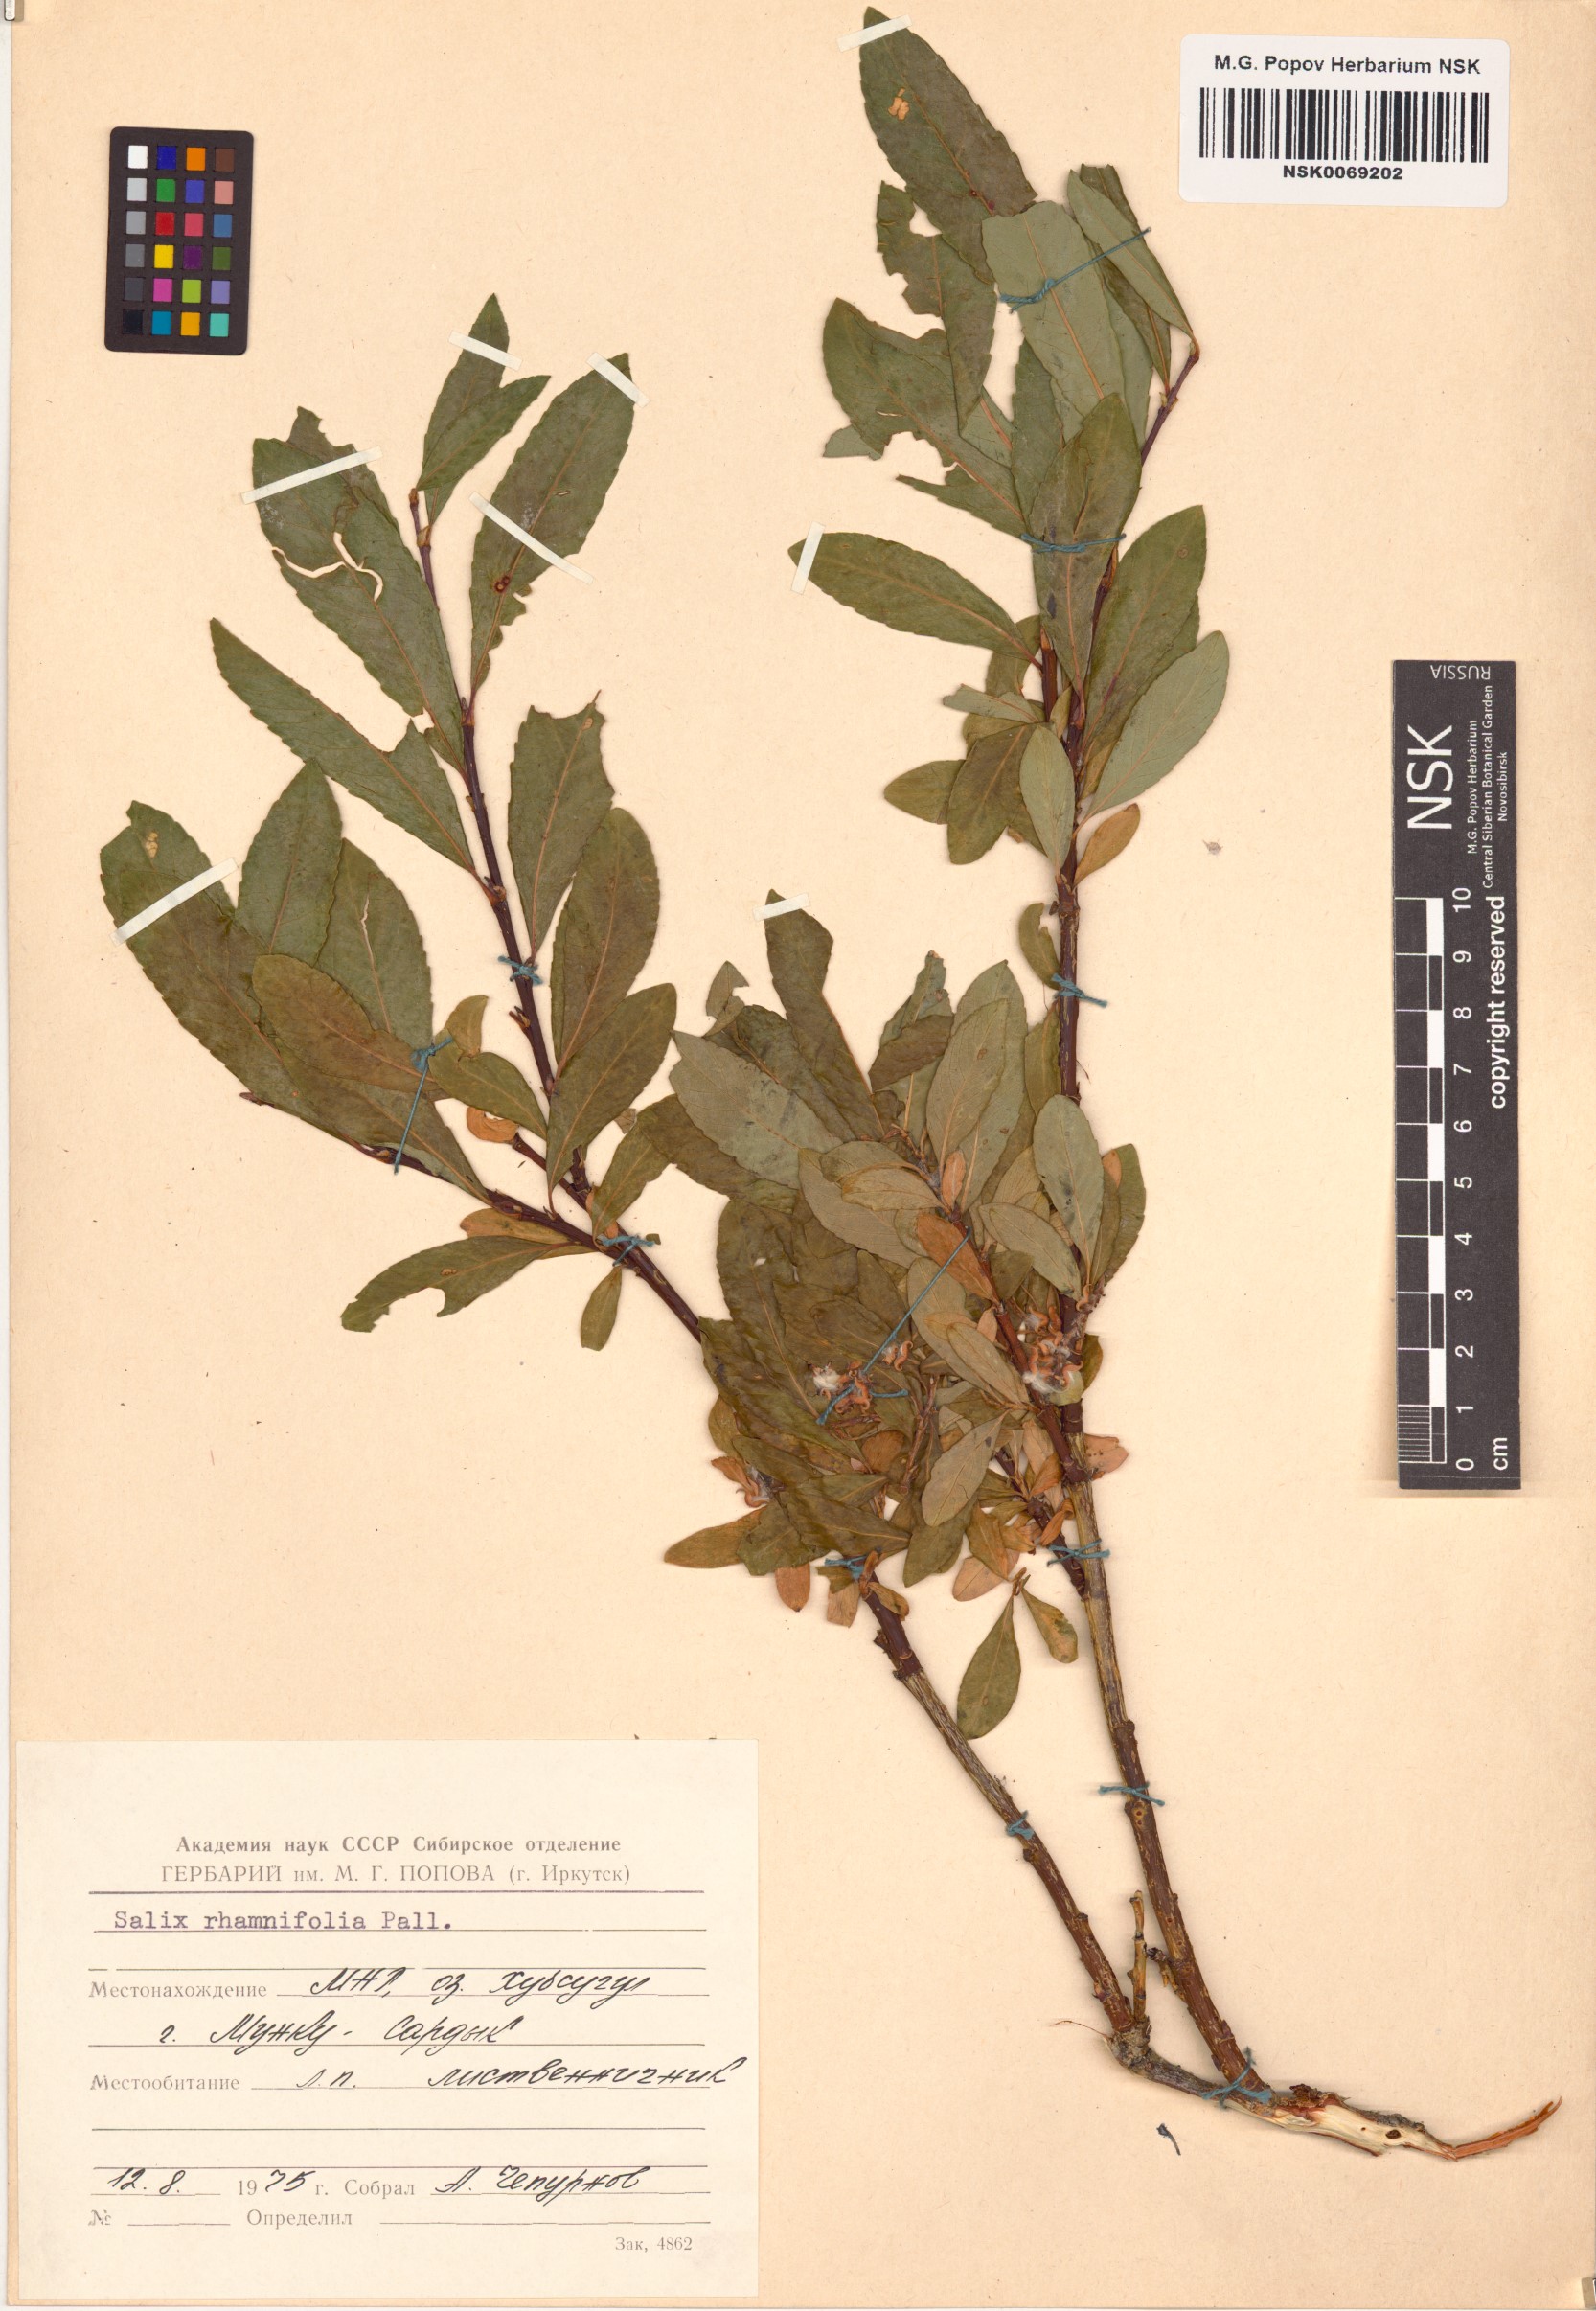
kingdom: Plantae
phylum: Tracheophyta
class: Magnoliopsida
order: Malpighiales
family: Salicaceae
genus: Salix
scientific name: Salix rhamnifolia
